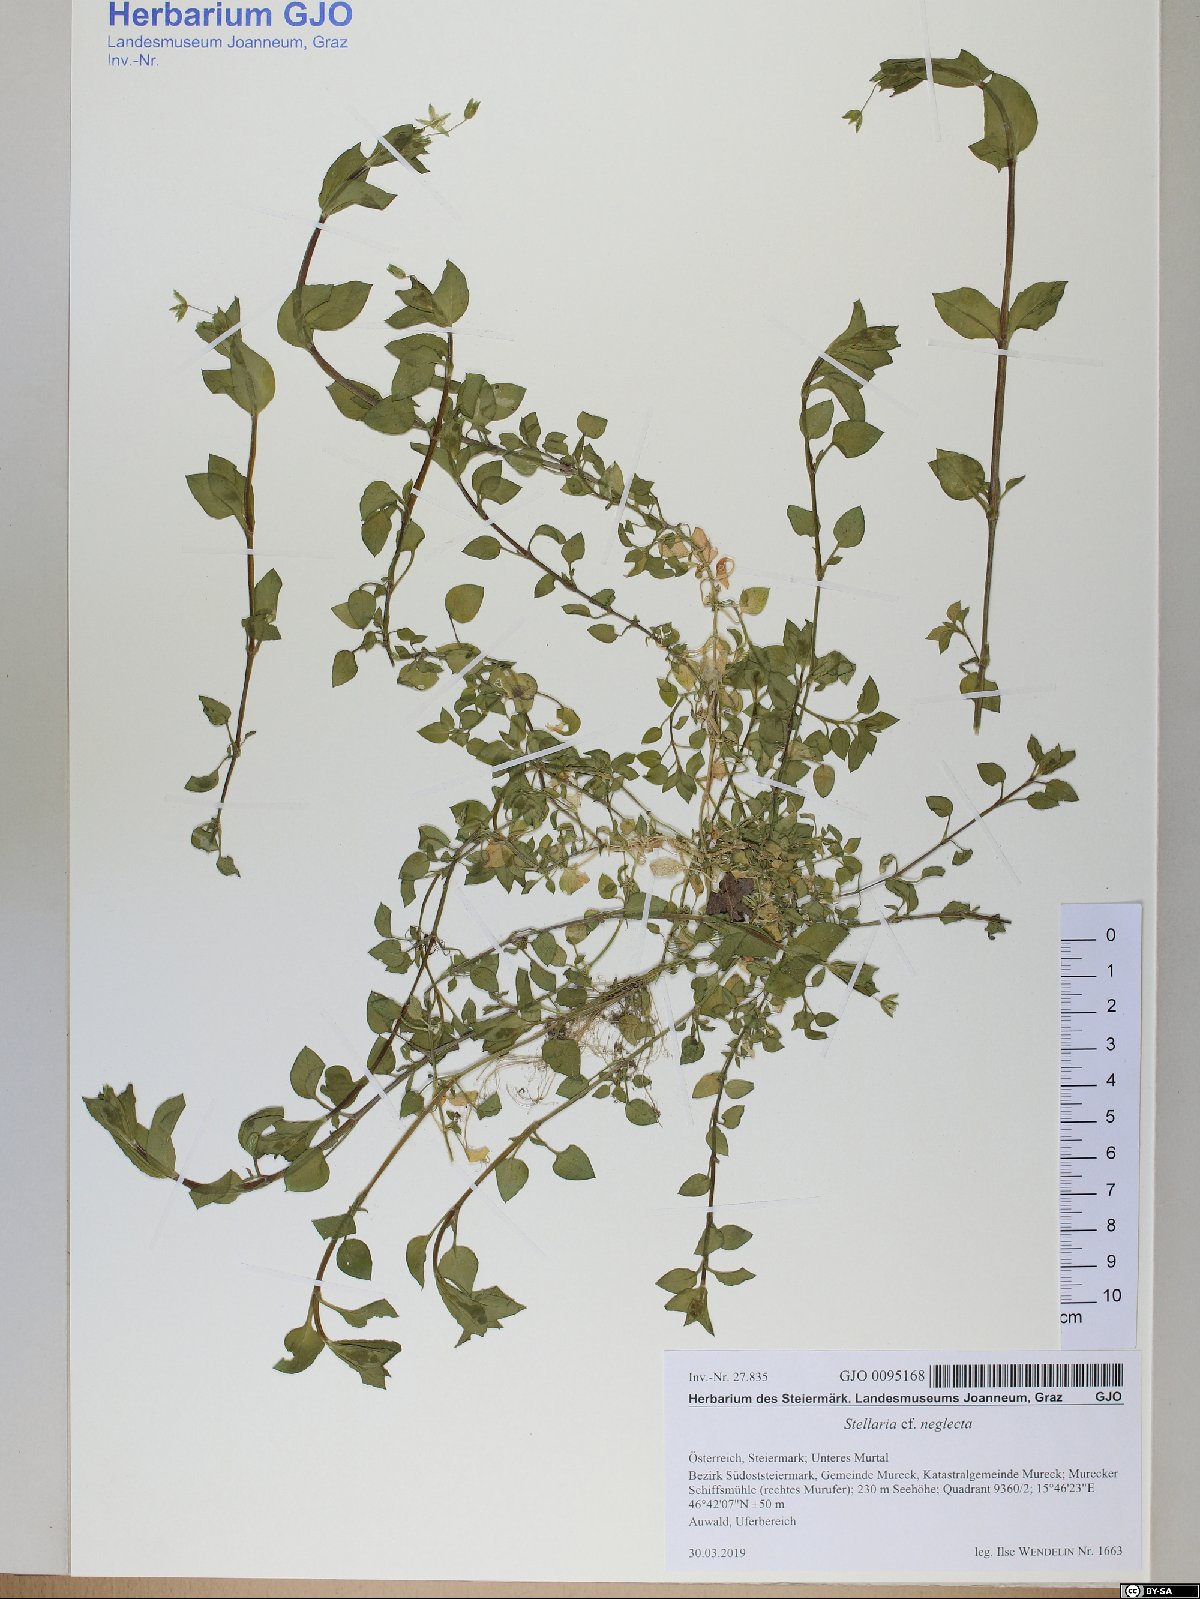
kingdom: Plantae
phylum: Tracheophyta
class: Magnoliopsida
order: Caryophyllales
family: Caryophyllaceae
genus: Stellaria
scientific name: Stellaria neglecta
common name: Greater chickweed
